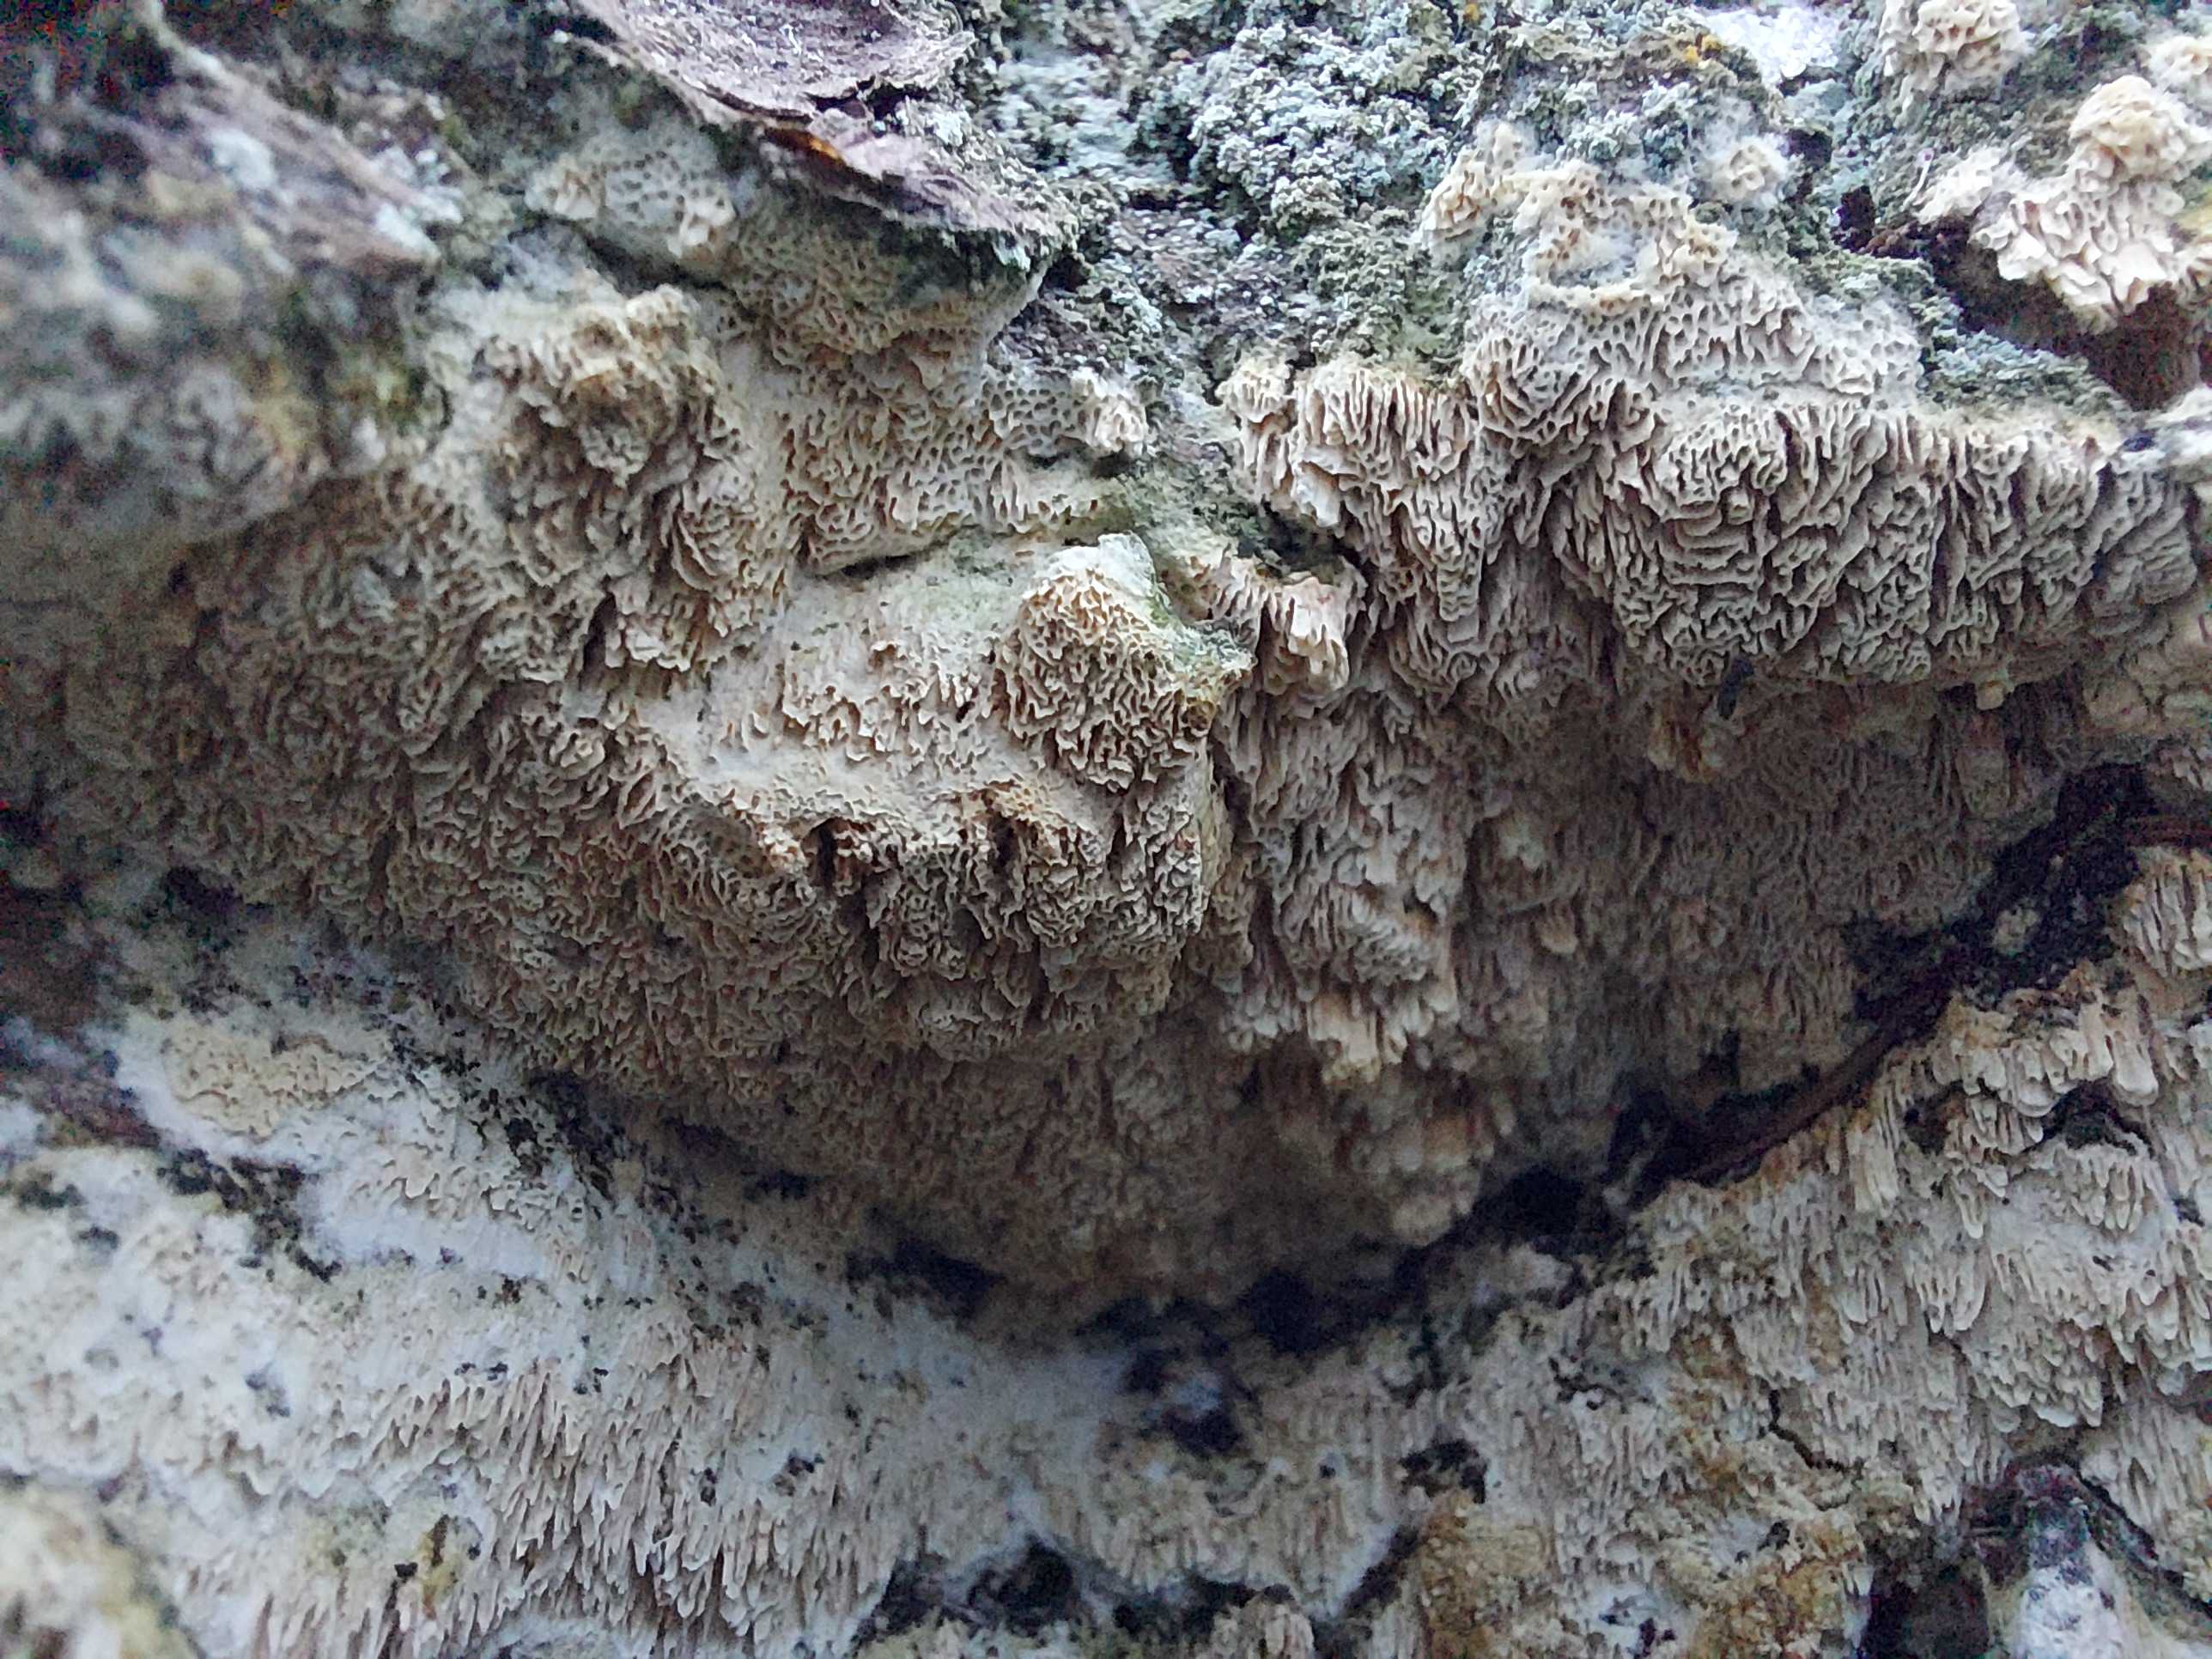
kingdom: Fungi
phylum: Basidiomycota
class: Agaricomycetes
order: Polyporales
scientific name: Polyporales
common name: poresvampordenen
